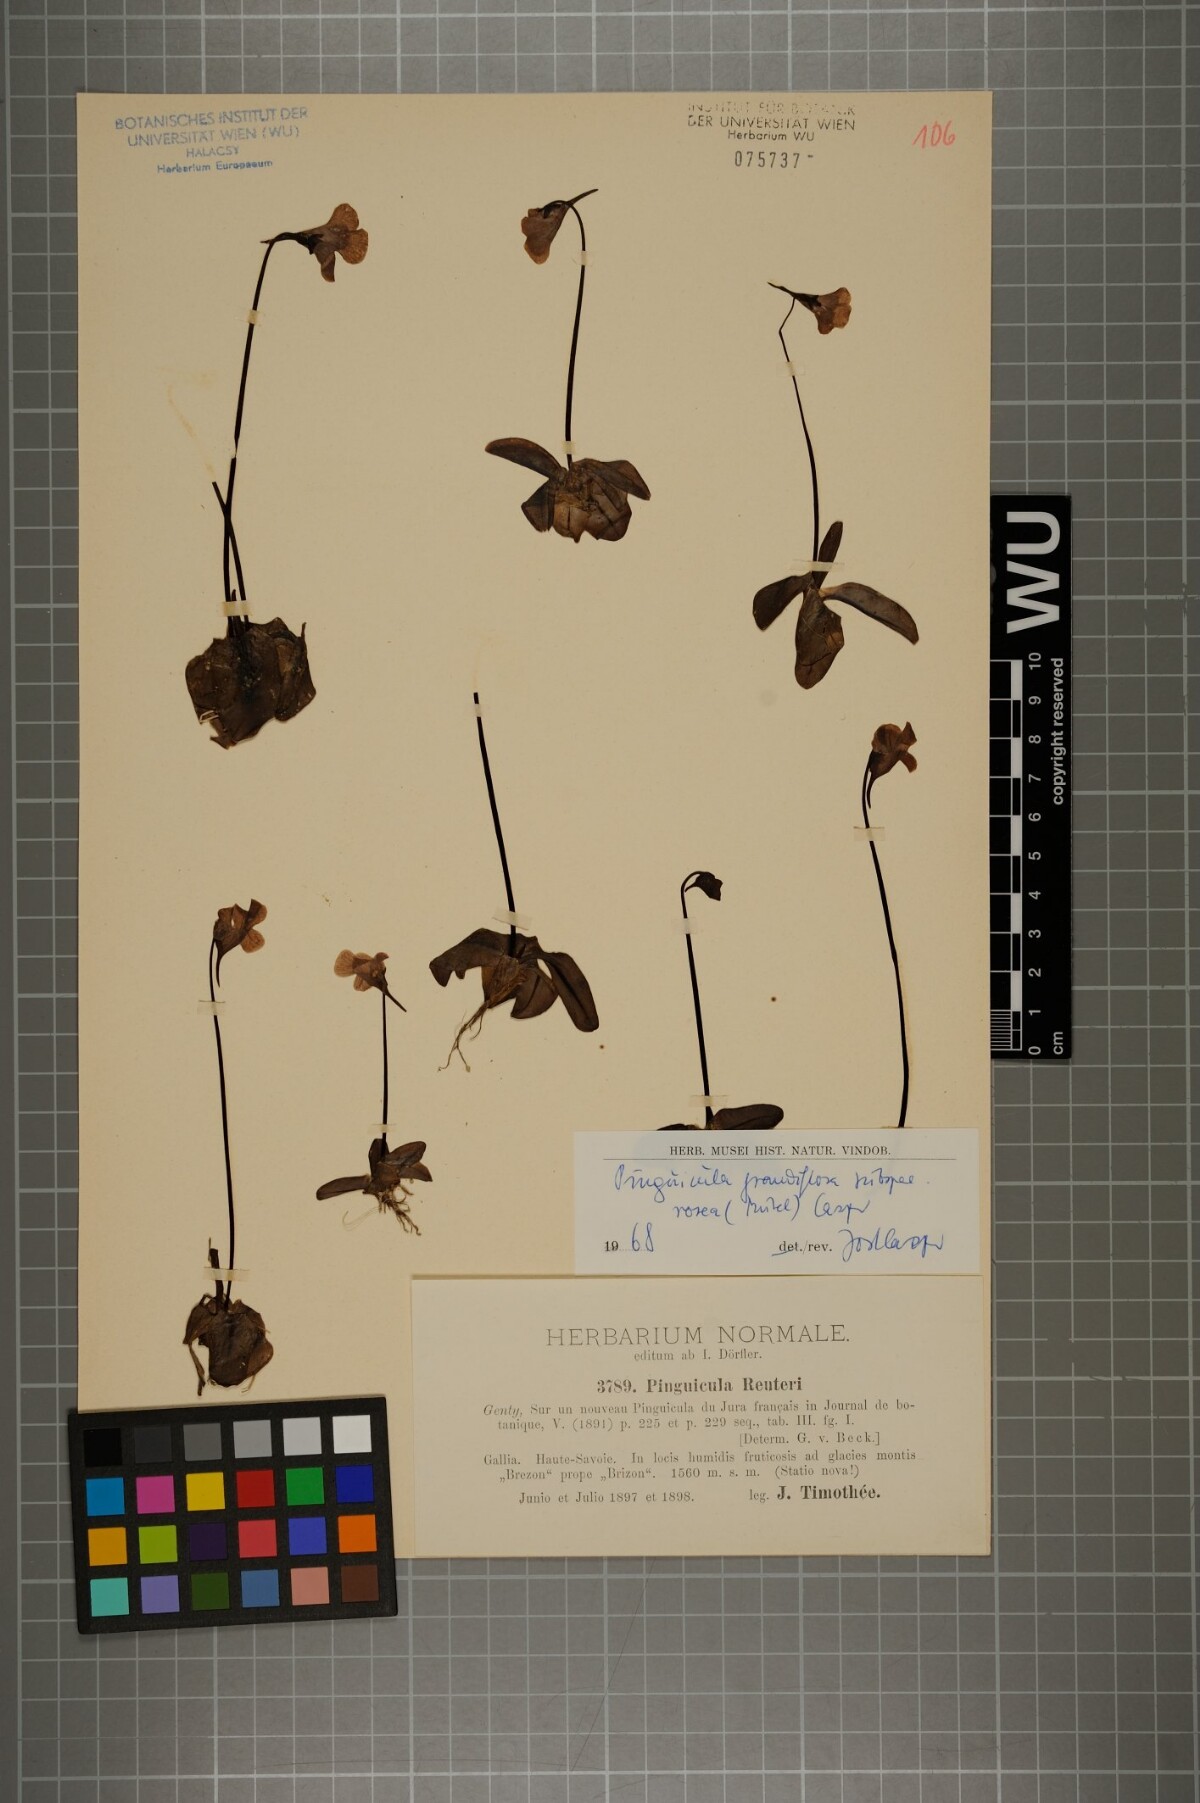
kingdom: Plantae
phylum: Tracheophyta
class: Magnoliopsida
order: Lamiales
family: Lentibulariaceae
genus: Pinguicula
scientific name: Pinguicula grandiflora
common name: Large-flowered butterwort
